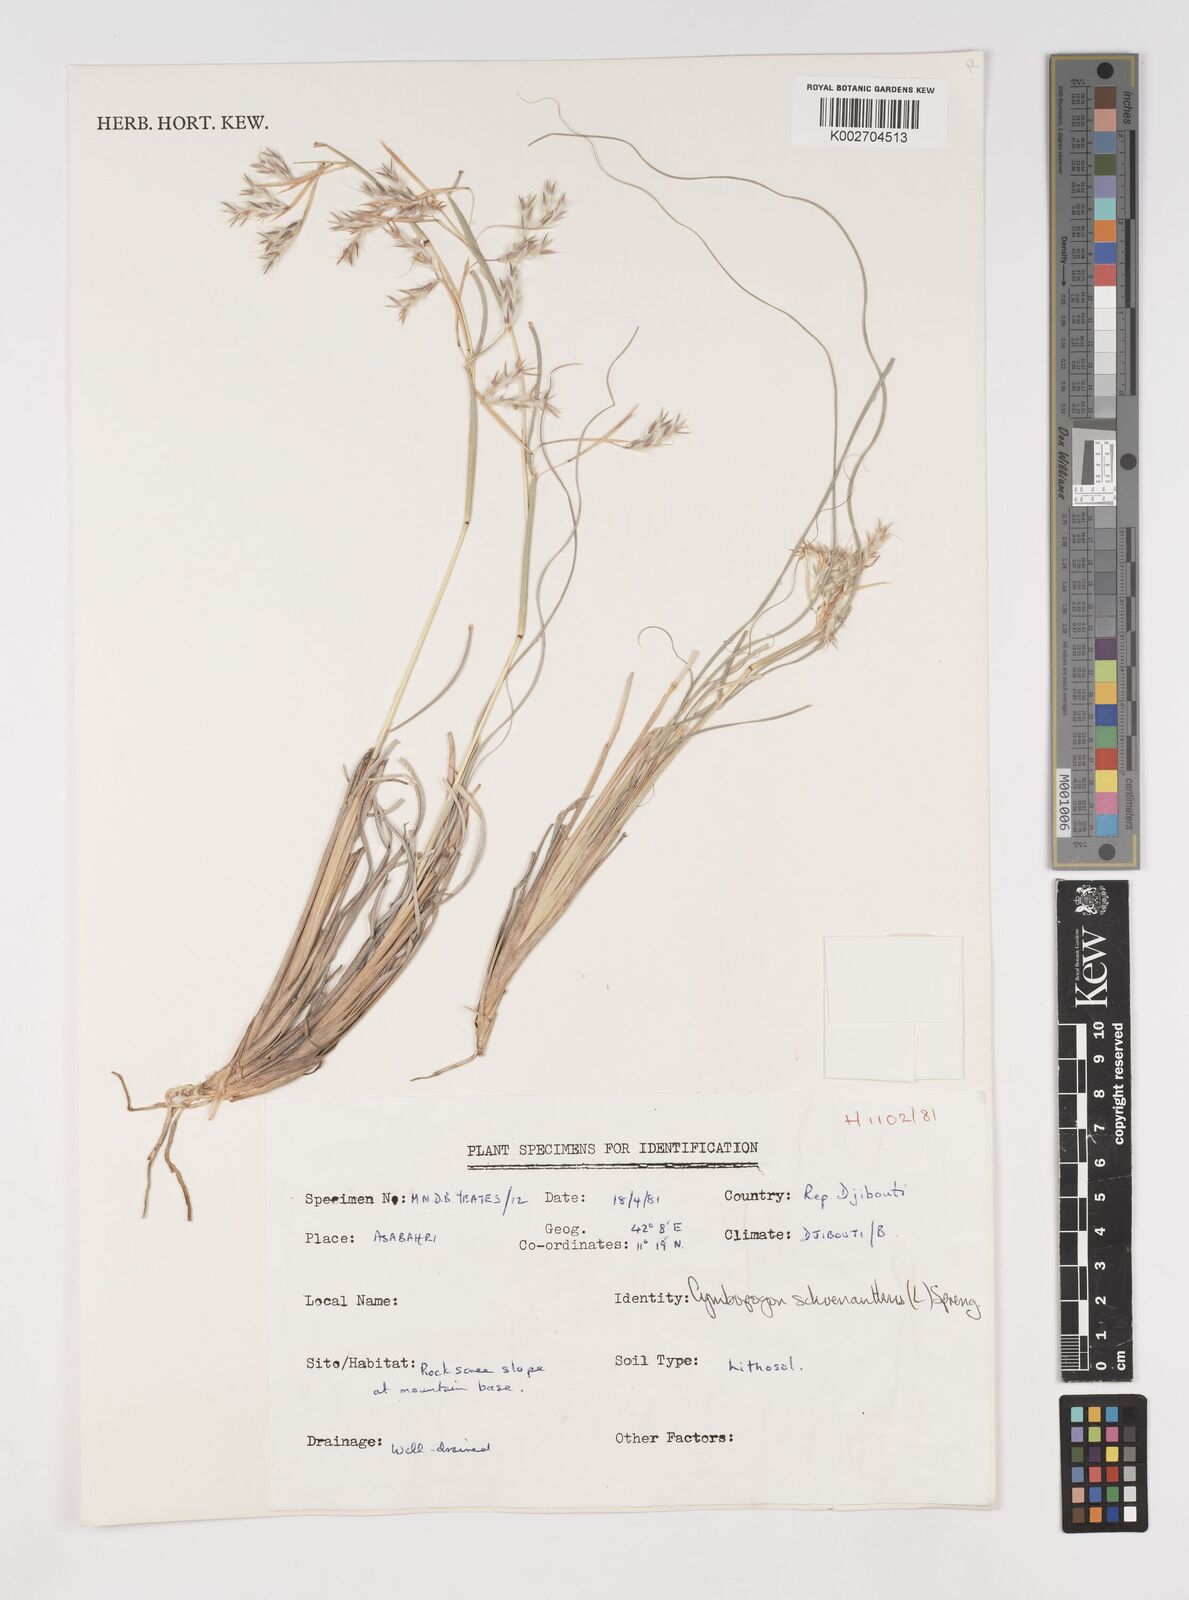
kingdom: Plantae
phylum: Tracheophyta
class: Liliopsida
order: Poales
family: Poaceae
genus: Cymbopogon
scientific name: Cymbopogon schoenanthus
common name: Geranium grass
